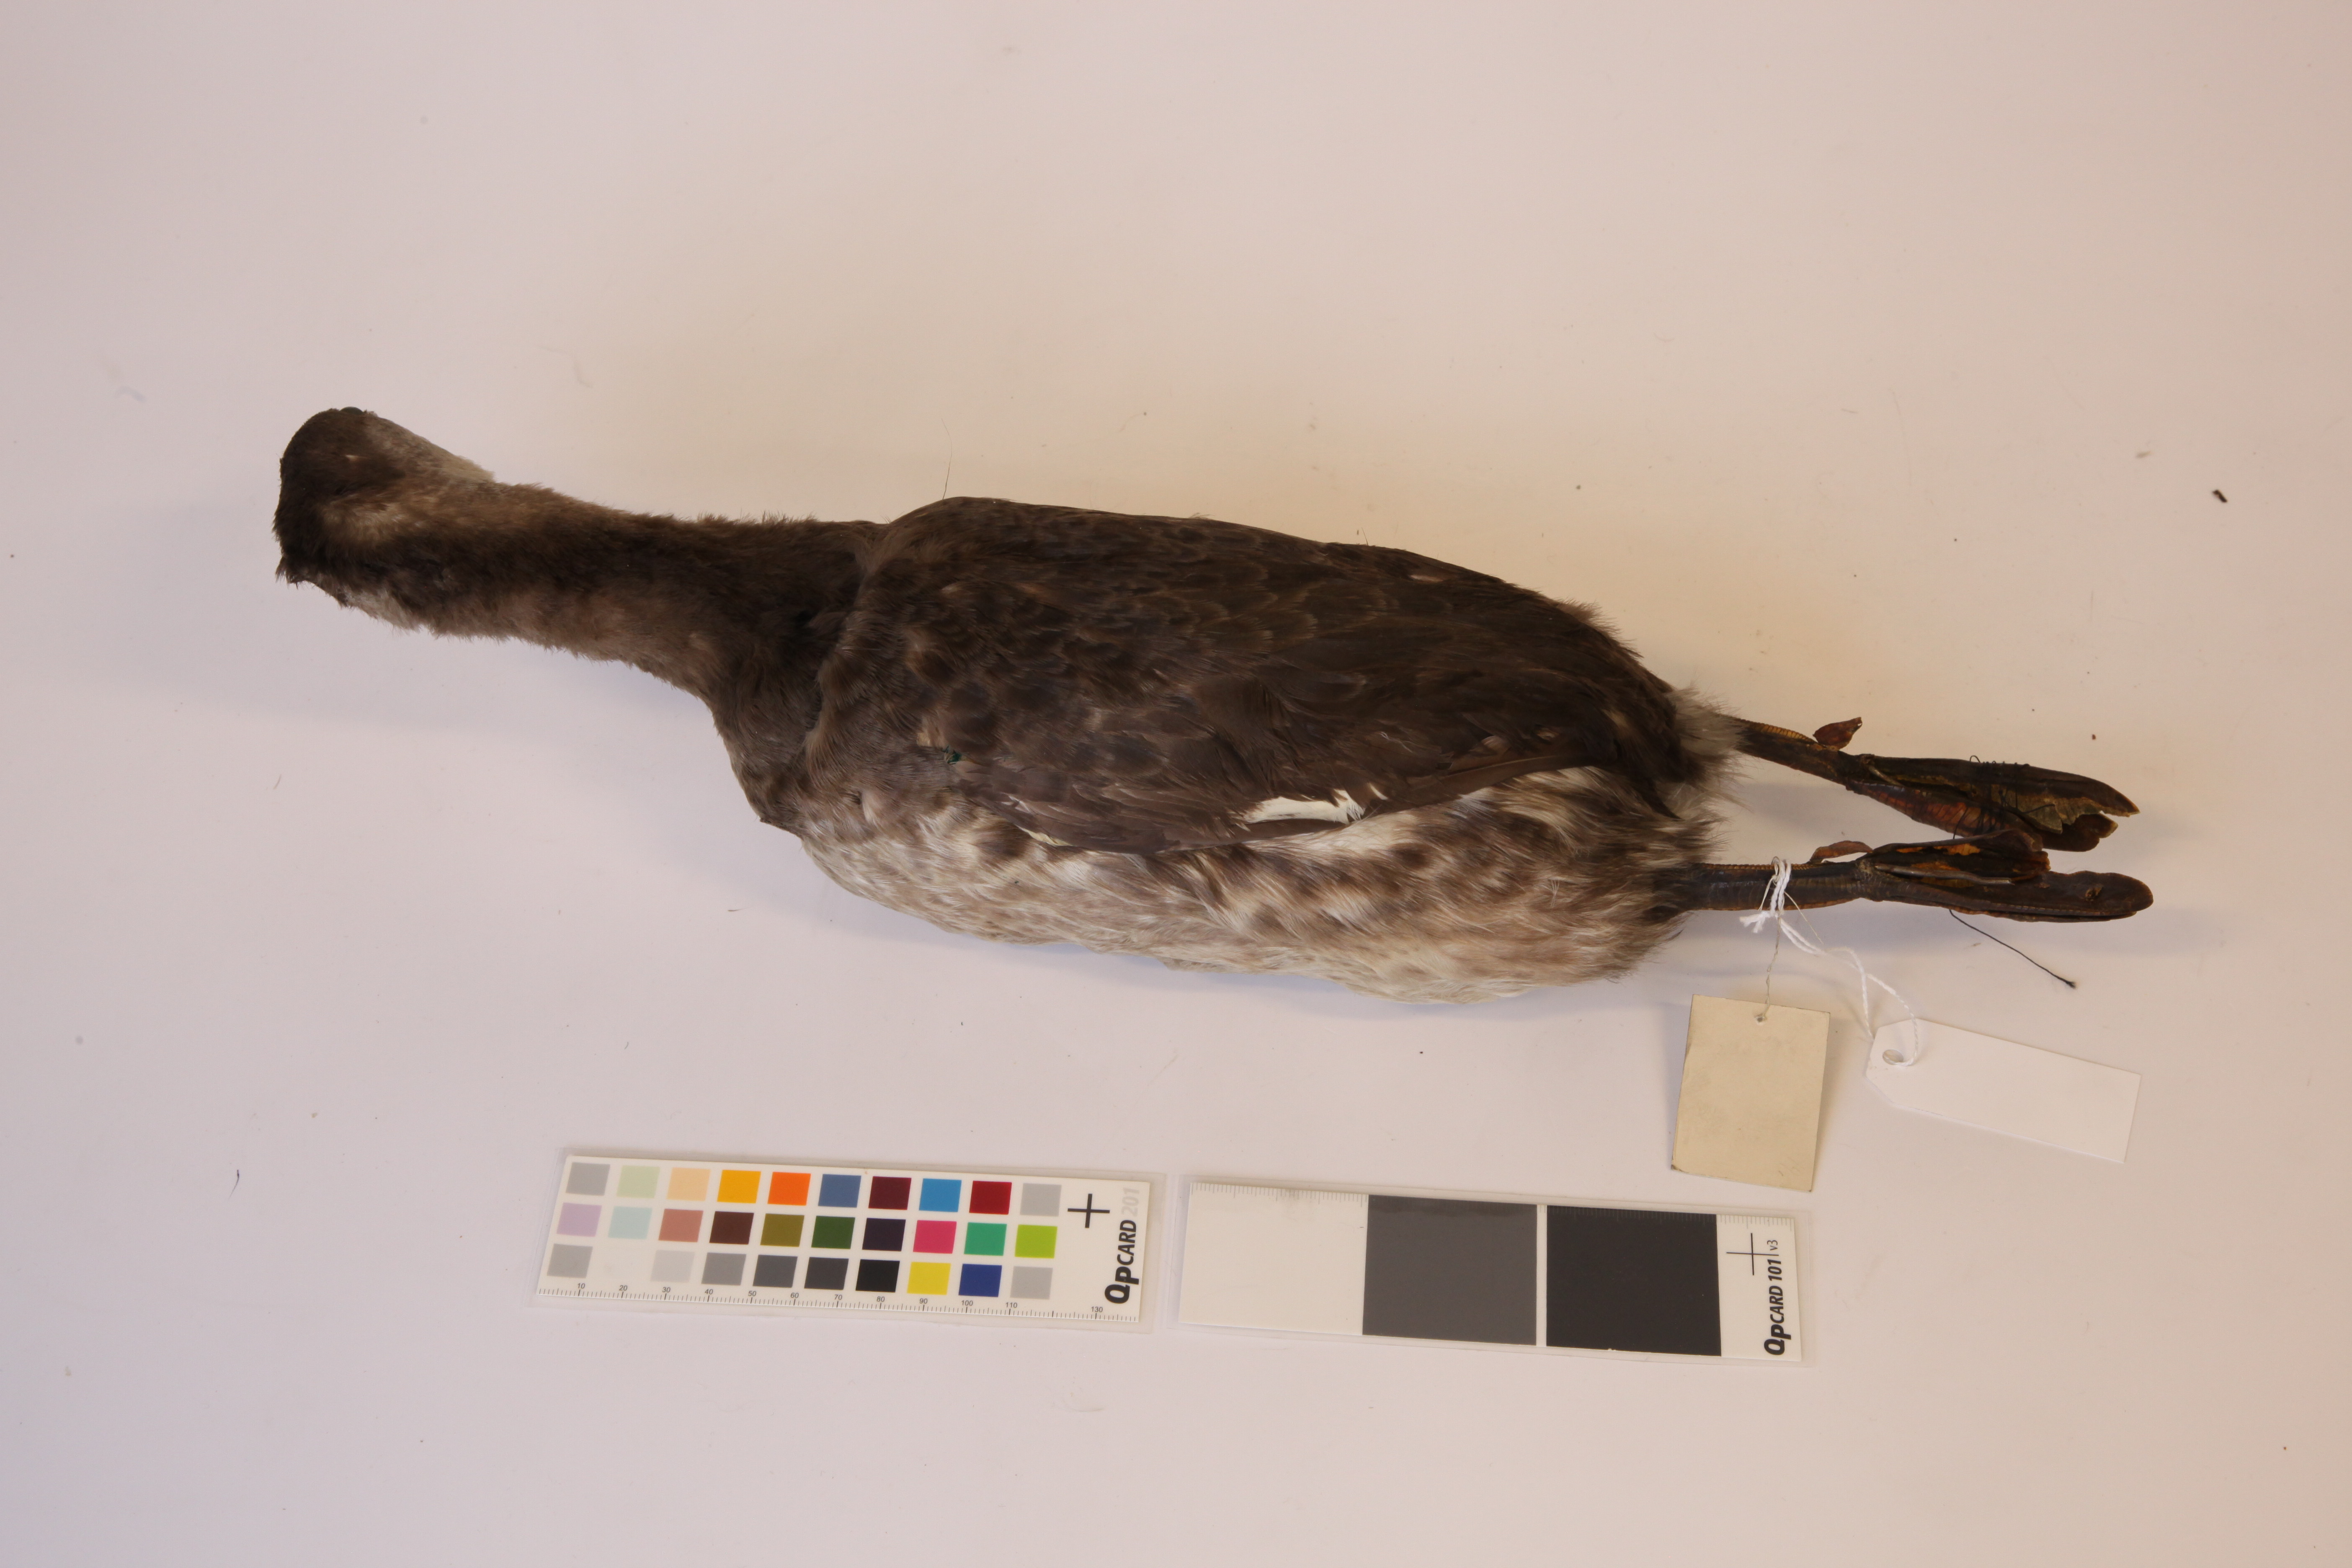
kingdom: Animalia
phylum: Chordata
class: Aves
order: Podicipediformes
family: Podicipedidae
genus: Podiceps
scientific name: Podiceps grisegena
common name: Red-necked grebe
